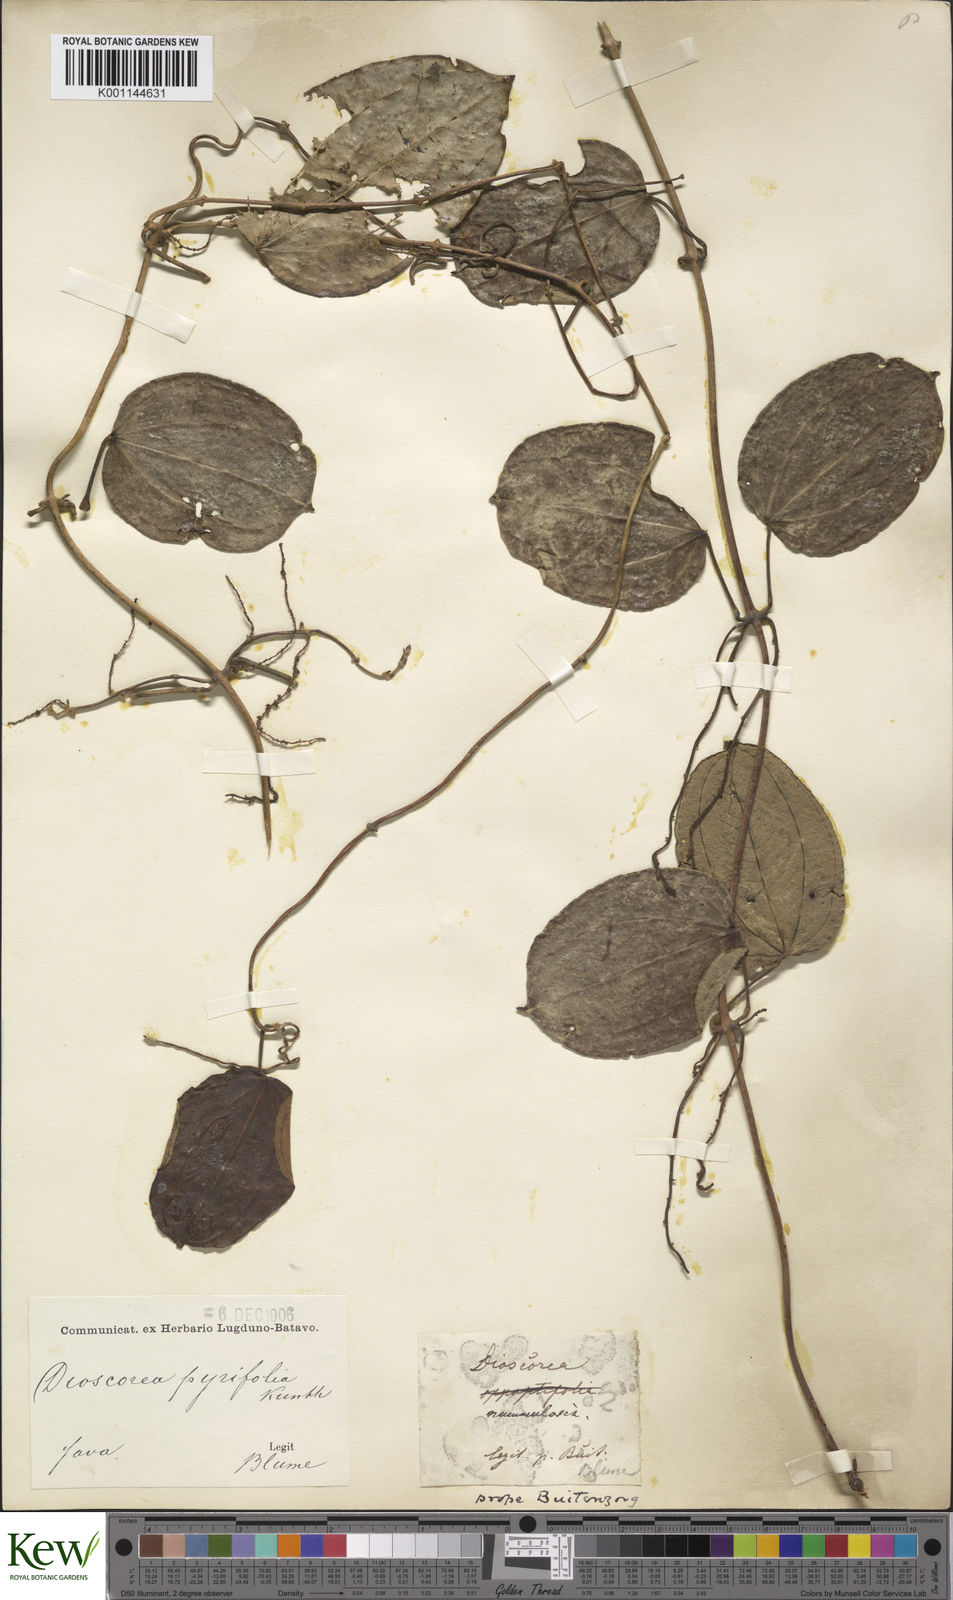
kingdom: Plantae
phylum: Tracheophyta
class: Liliopsida
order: Dioscoreales
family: Dioscoreaceae
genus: Dioscorea
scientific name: Dioscorea pyrifolia
